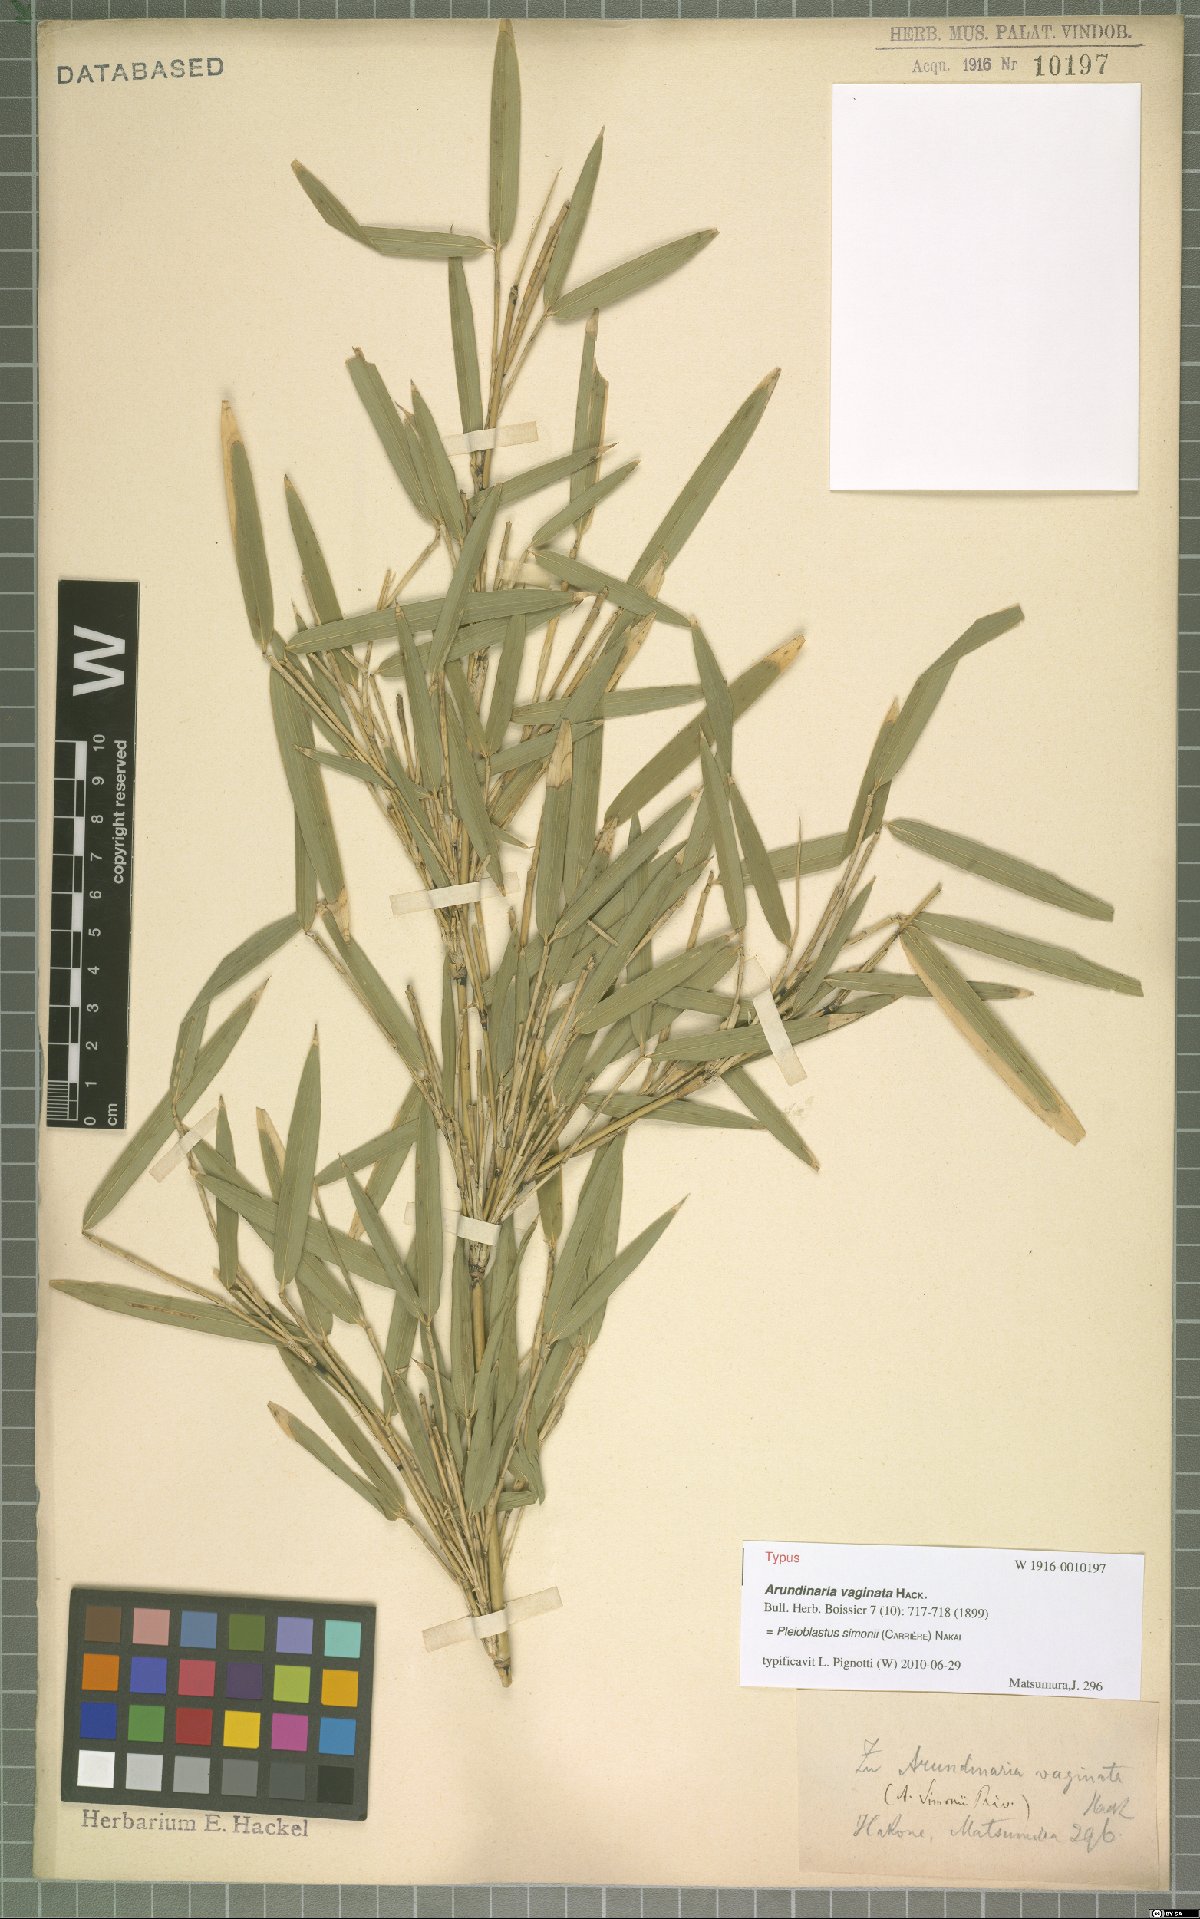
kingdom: Plantae
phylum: Tracheophyta
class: Liliopsida
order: Poales
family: Poaceae
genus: Pleioblastus
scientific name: Pleioblastus simonii
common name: Simon bamboo
